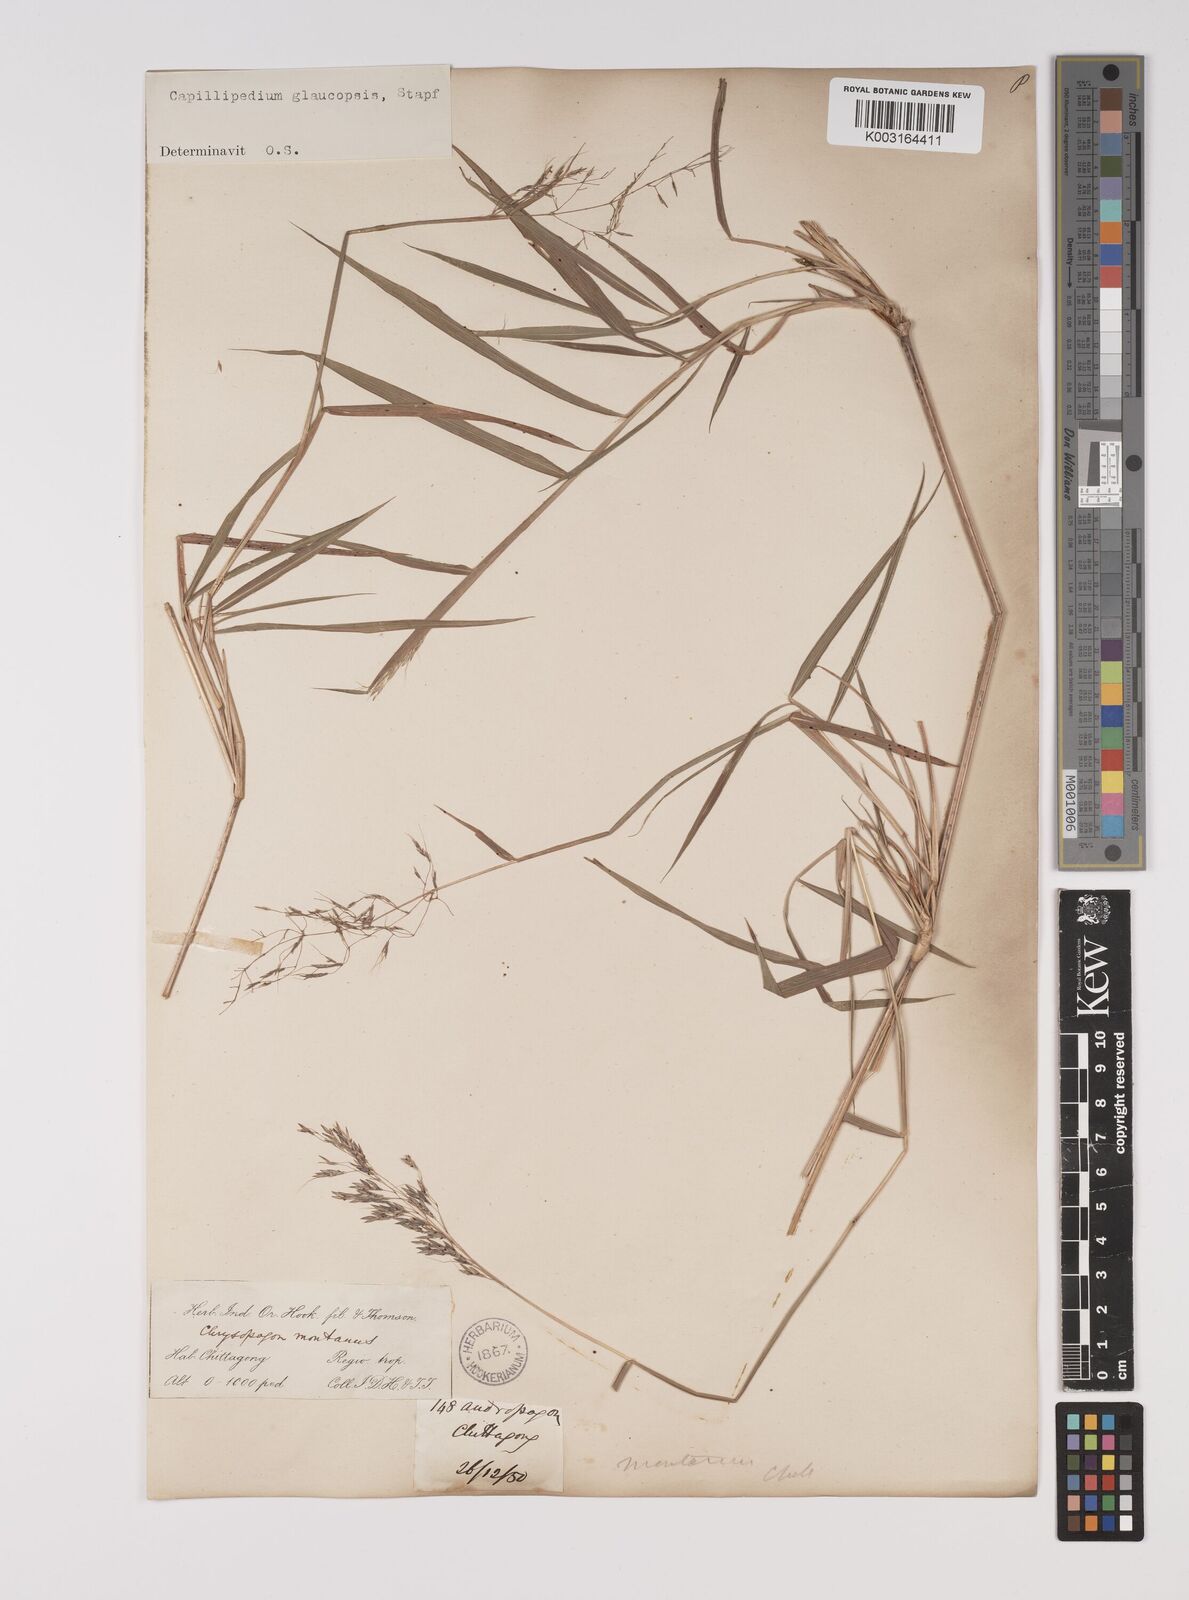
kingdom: Plantae
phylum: Tracheophyta
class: Liliopsida
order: Poales
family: Poaceae
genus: Capillipedium
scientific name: Capillipedium assimile
